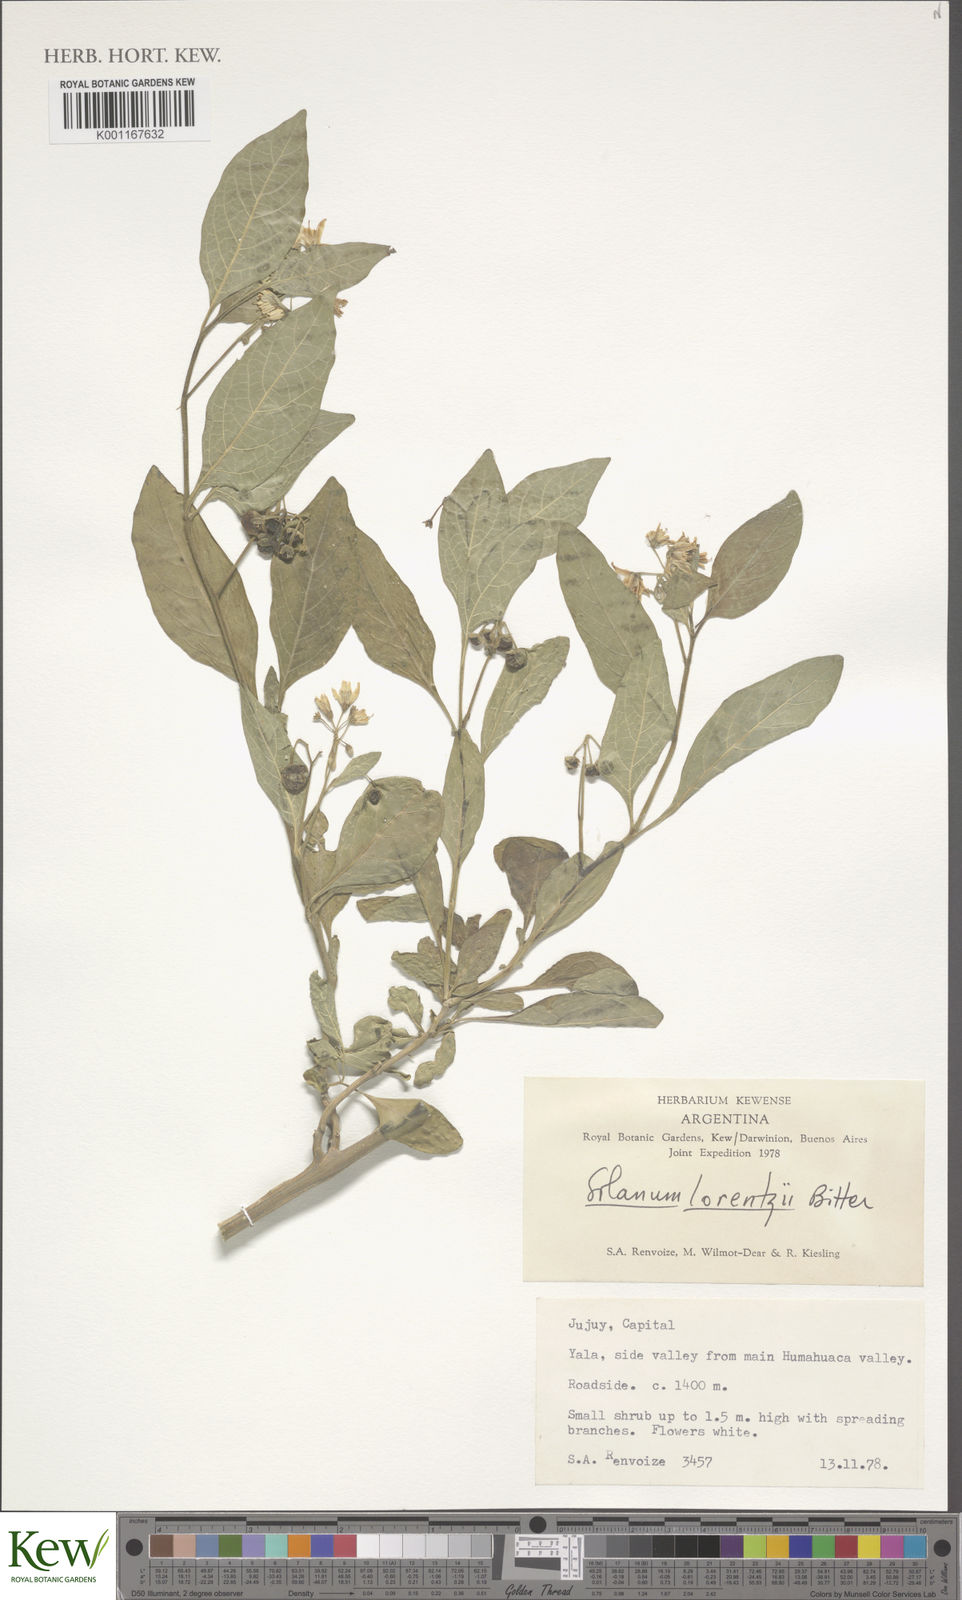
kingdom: Plantae
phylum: Tracheophyta
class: Magnoliopsida
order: Solanales
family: Solanaceae
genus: Solanum
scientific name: Solanum aloysiifolium
